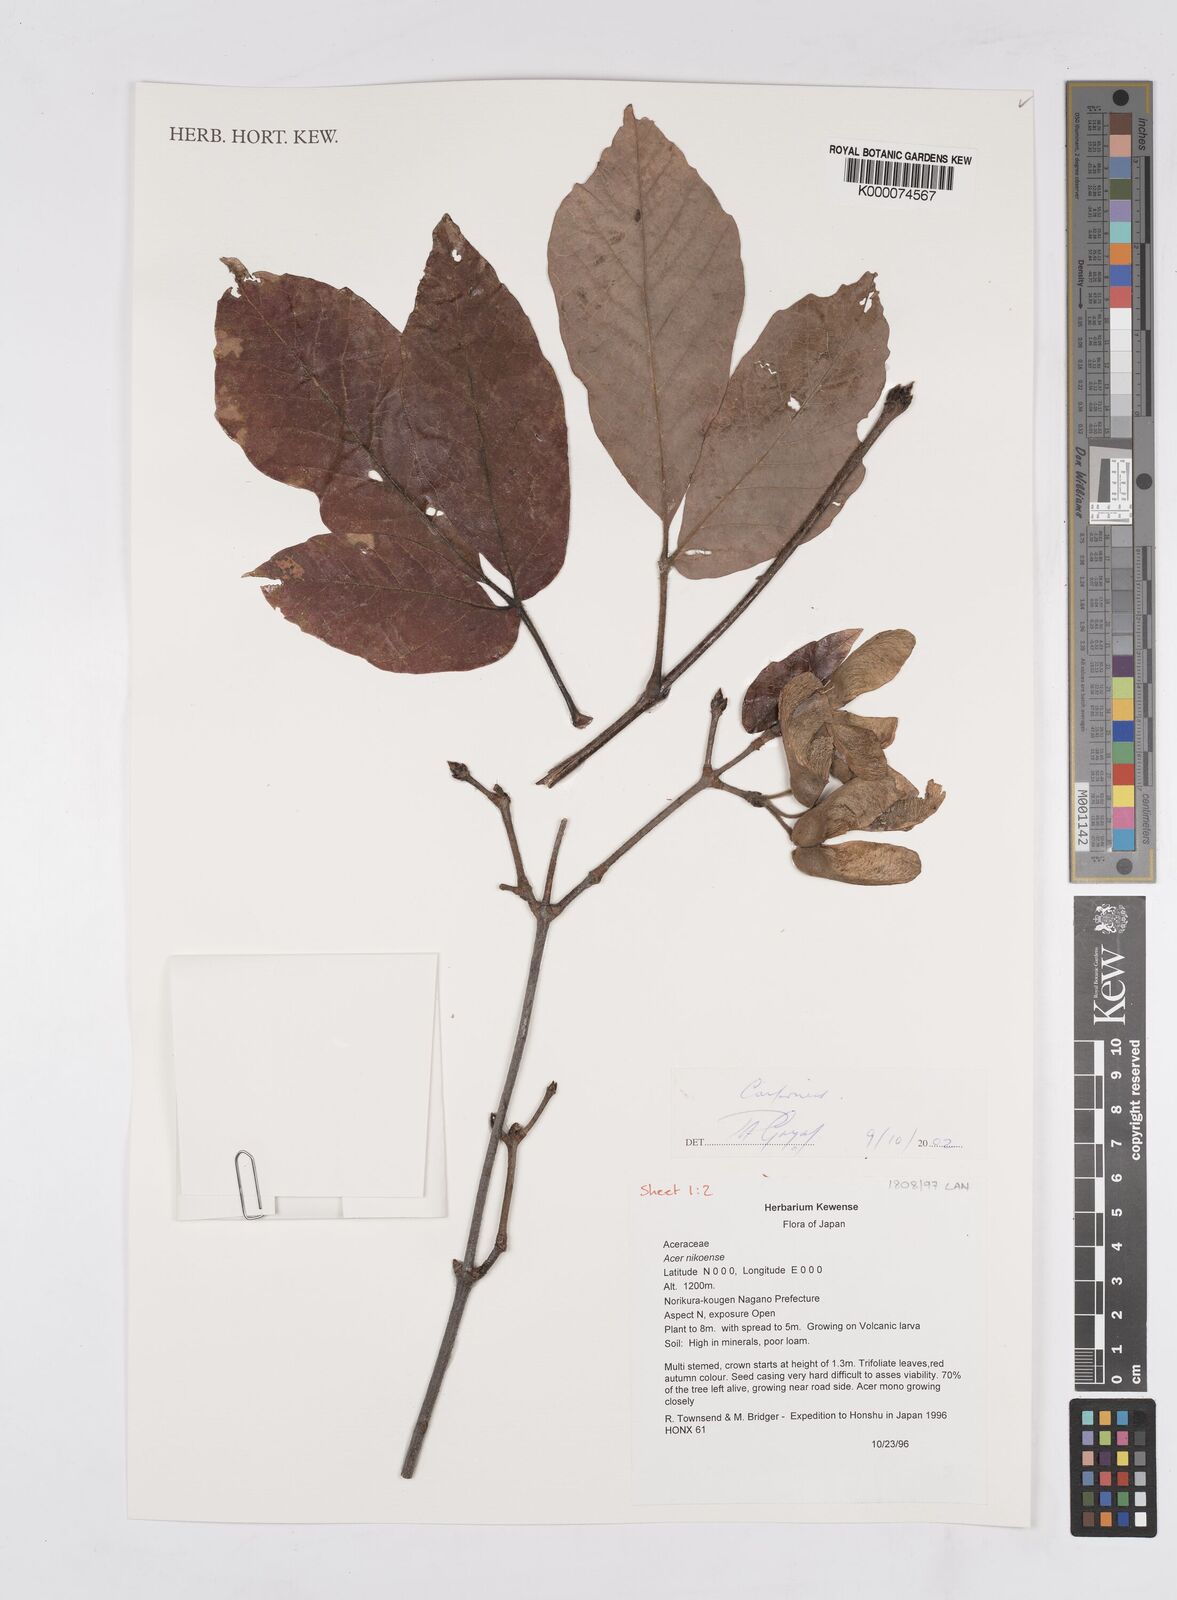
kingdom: Plantae
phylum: Tracheophyta
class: Magnoliopsida
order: Vitales
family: Vitaceae
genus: Parthenocissus
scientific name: Parthenocissus tricuspidata
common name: Boston ivy
